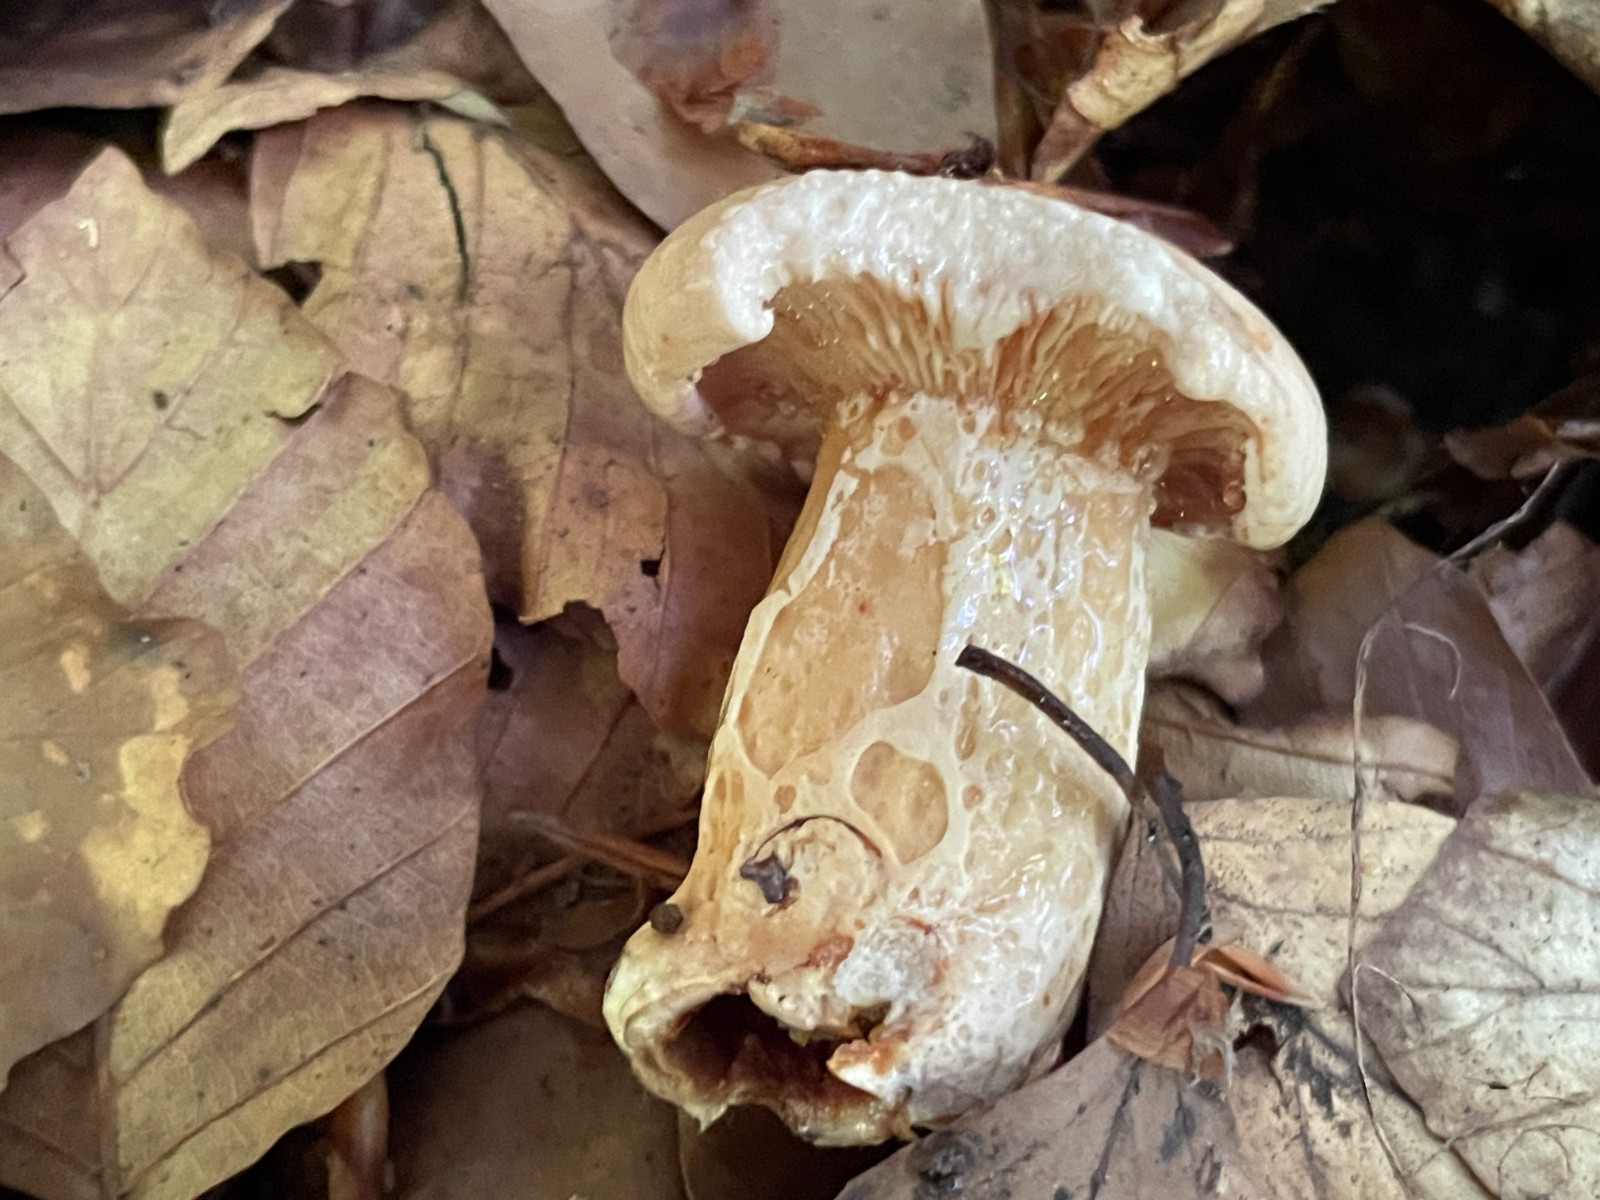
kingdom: Fungi
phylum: Basidiomycota
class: Agaricomycetes
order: Russulales
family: Russulaceae
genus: Lactarius
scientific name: Lactarius pallidus
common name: bleg mælkehat
